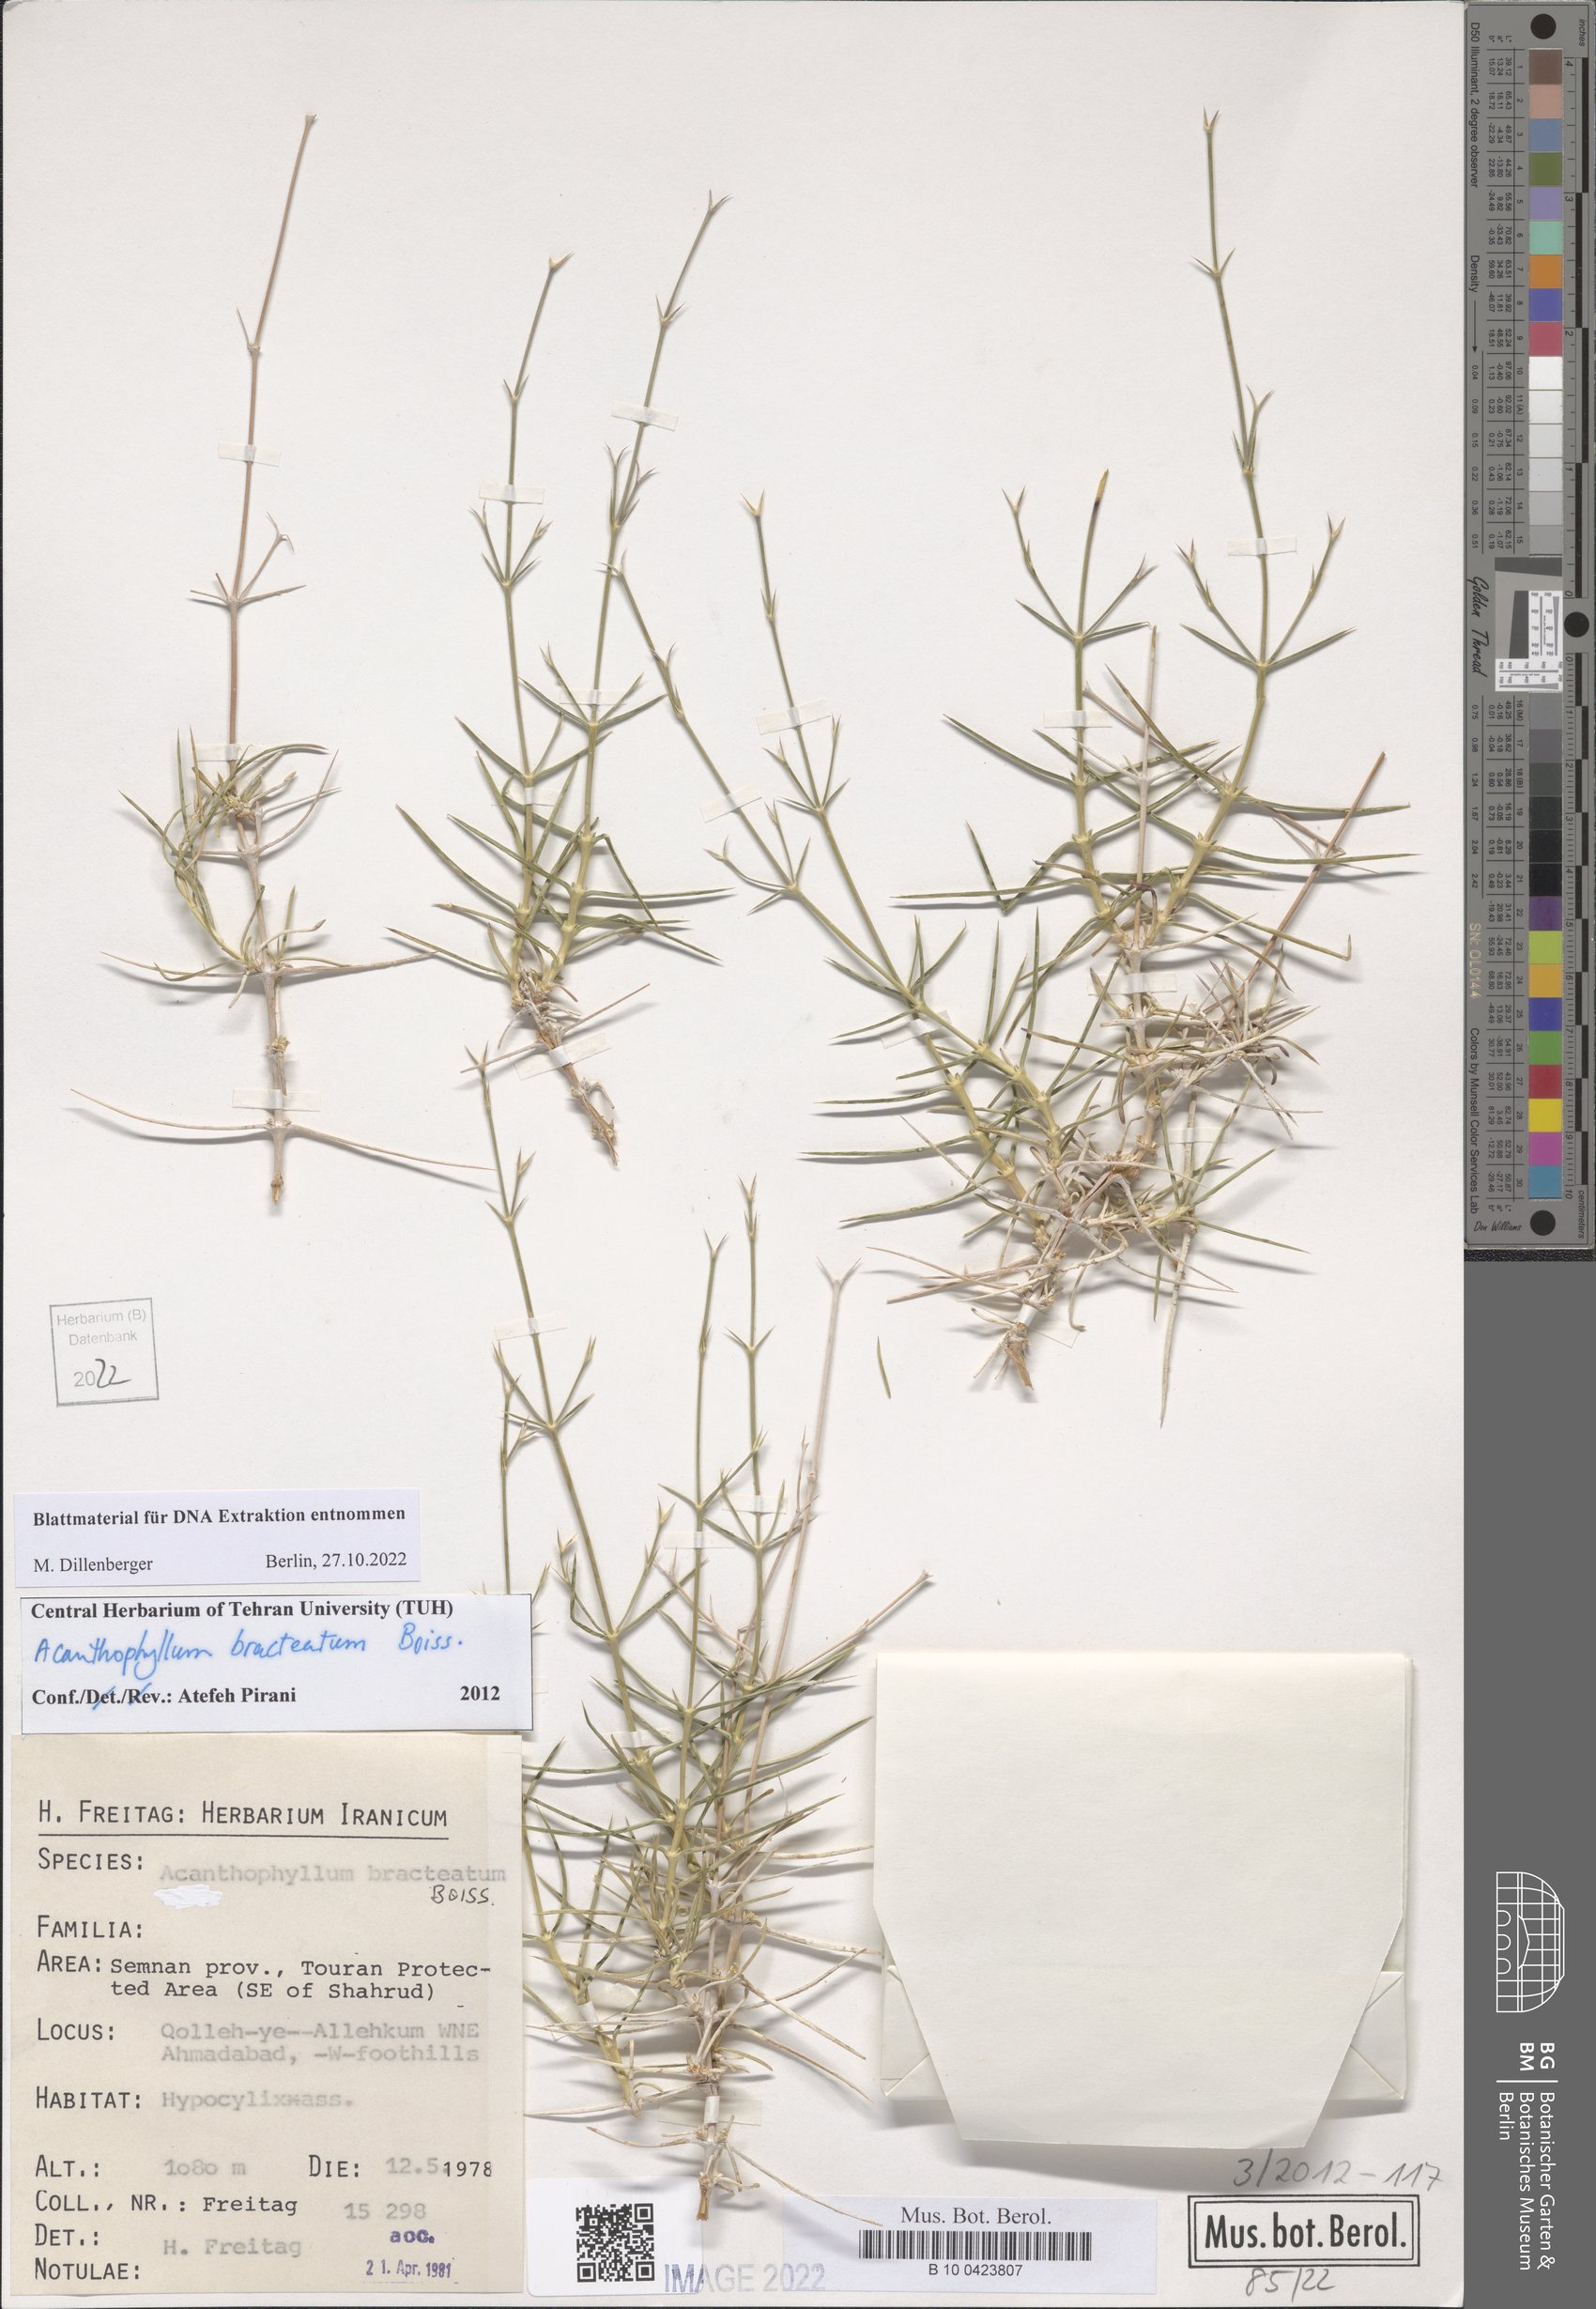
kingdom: Plantae
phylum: Tracheophyta
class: Magnoliopsida
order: Caryophyllales
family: Caryophyllaceae
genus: Acanthophyllum
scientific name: Acanthophyllum bracteatum
